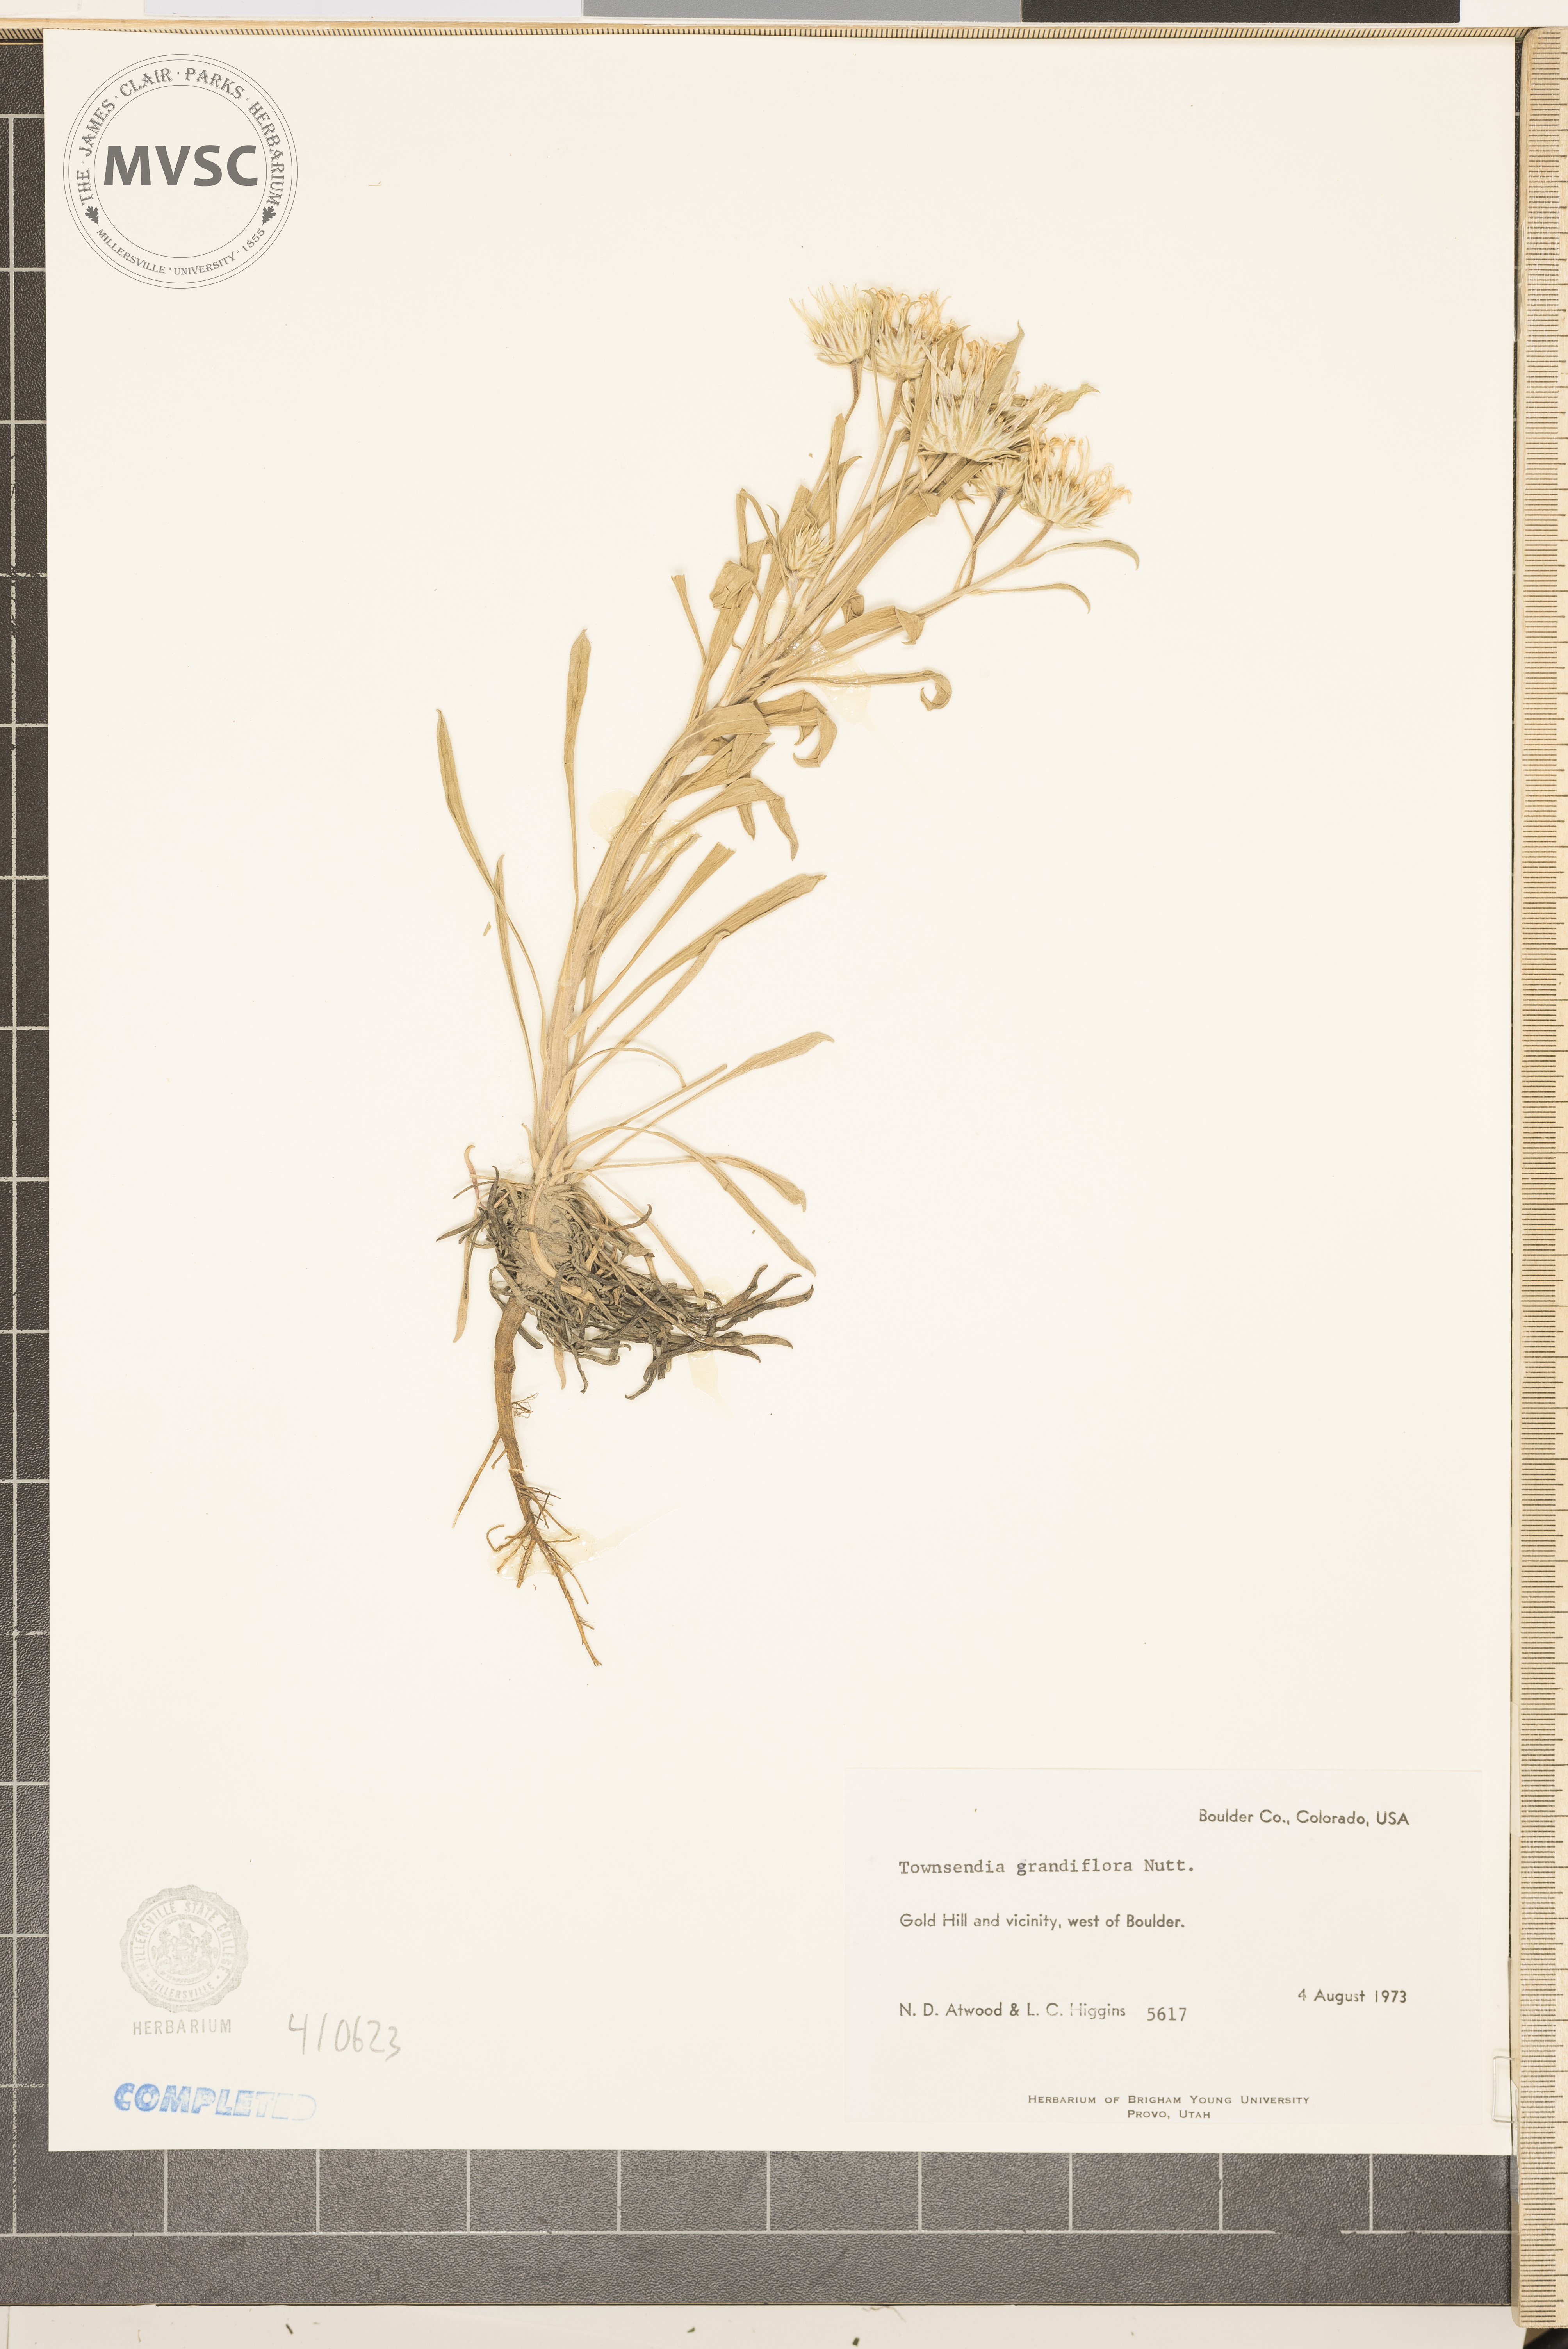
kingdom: Plantae
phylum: Tracheophyta
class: Magnoliopsida
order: Asterales
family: Asteraceae
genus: Townsendia
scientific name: Townsendia grandiflora
